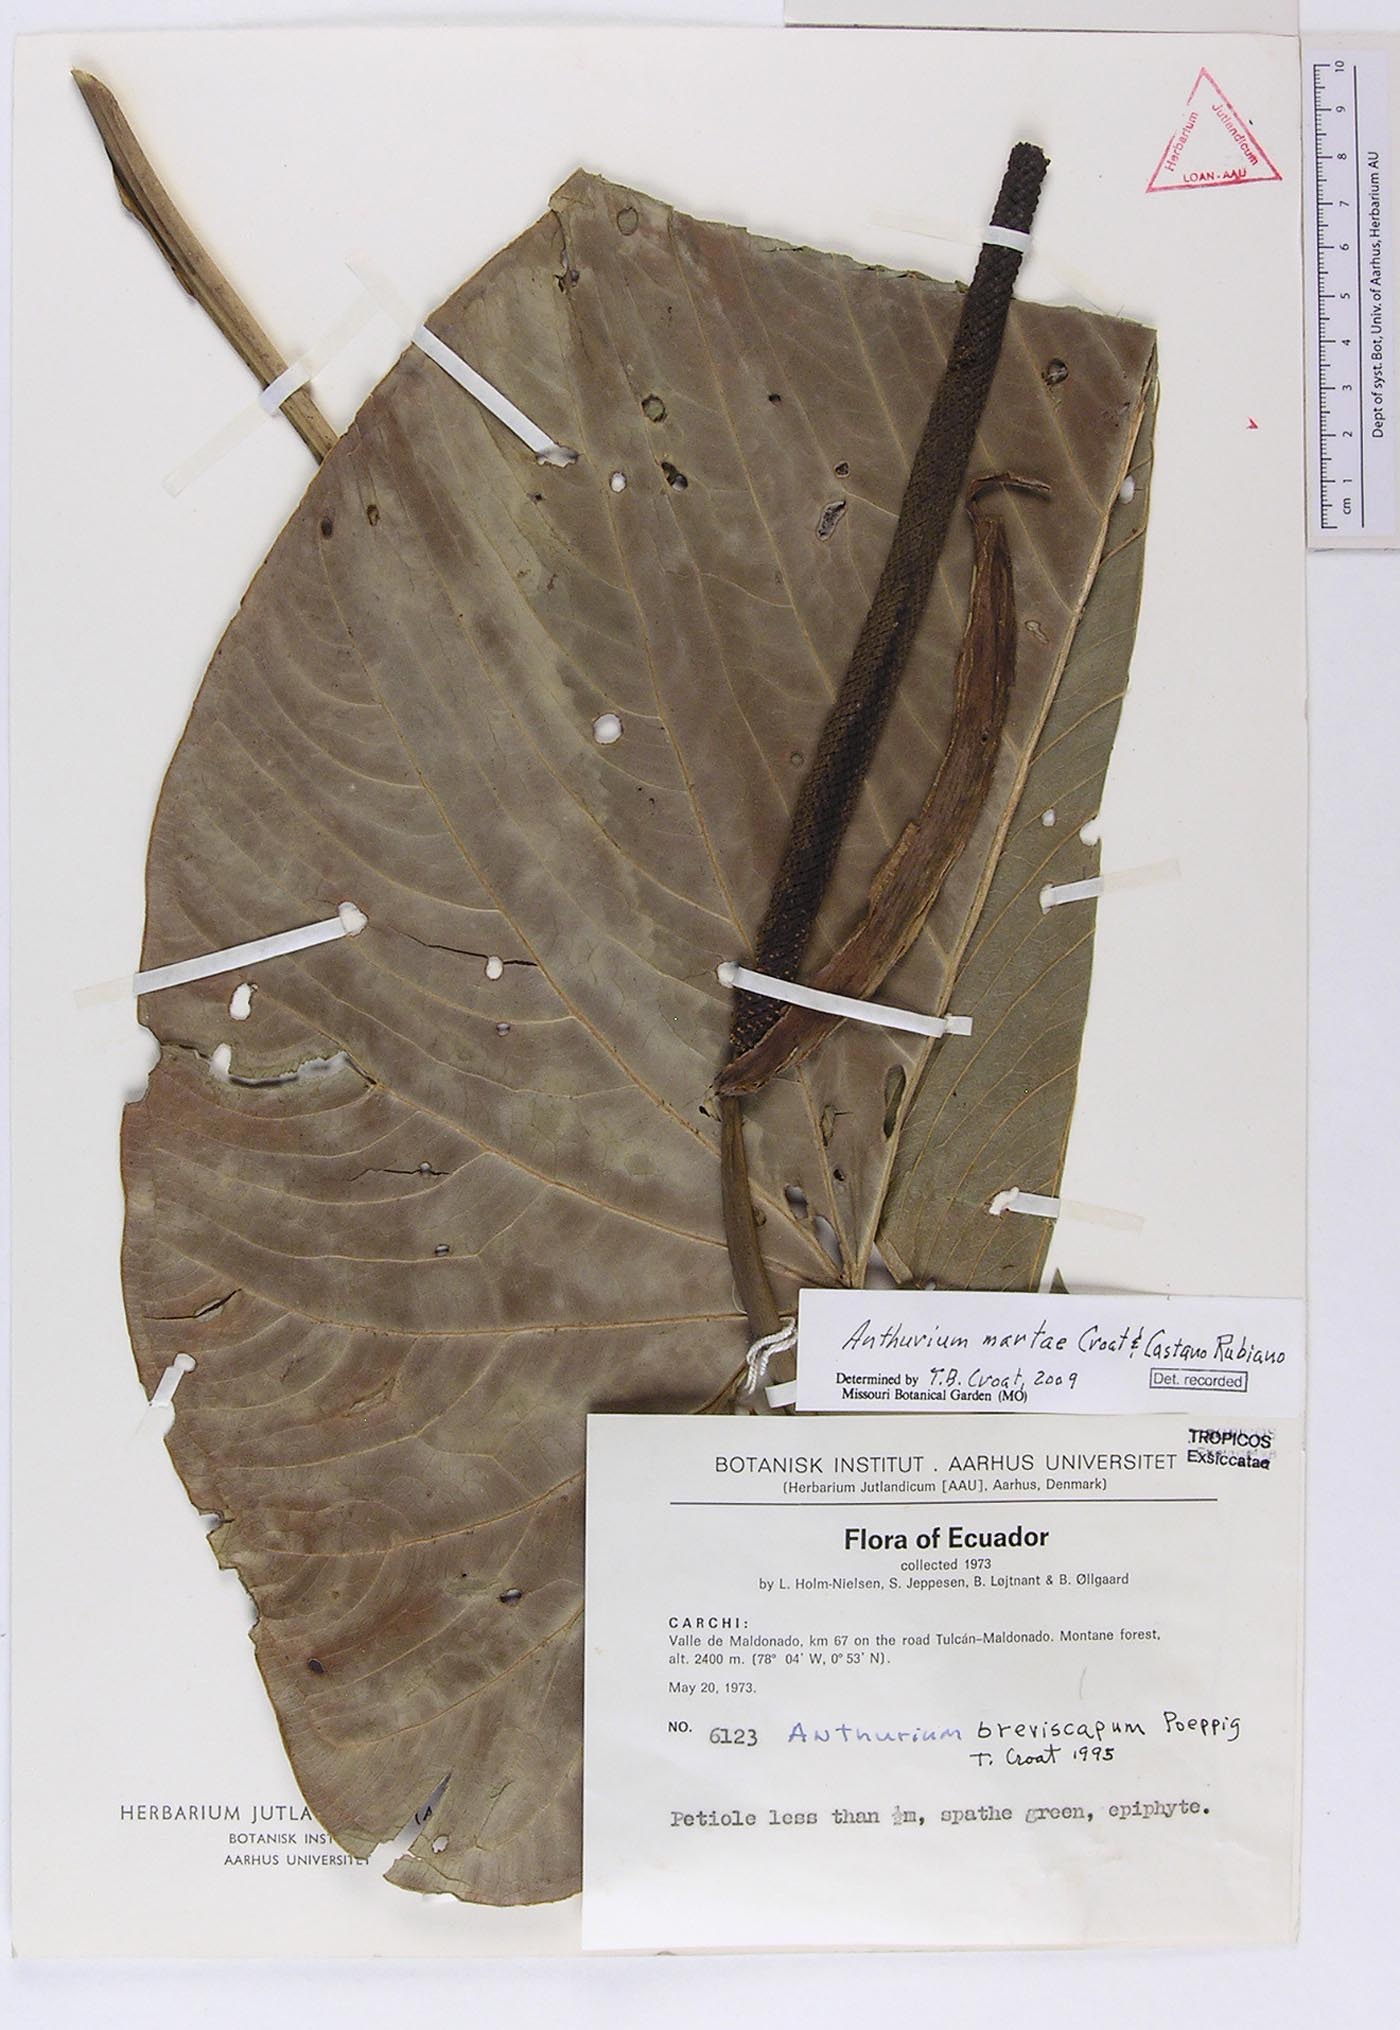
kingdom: Plantae
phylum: Tracheophyta
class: Liliopsida
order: Alismatales
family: Araceae
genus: Anthurium
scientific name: Anthurium martae
